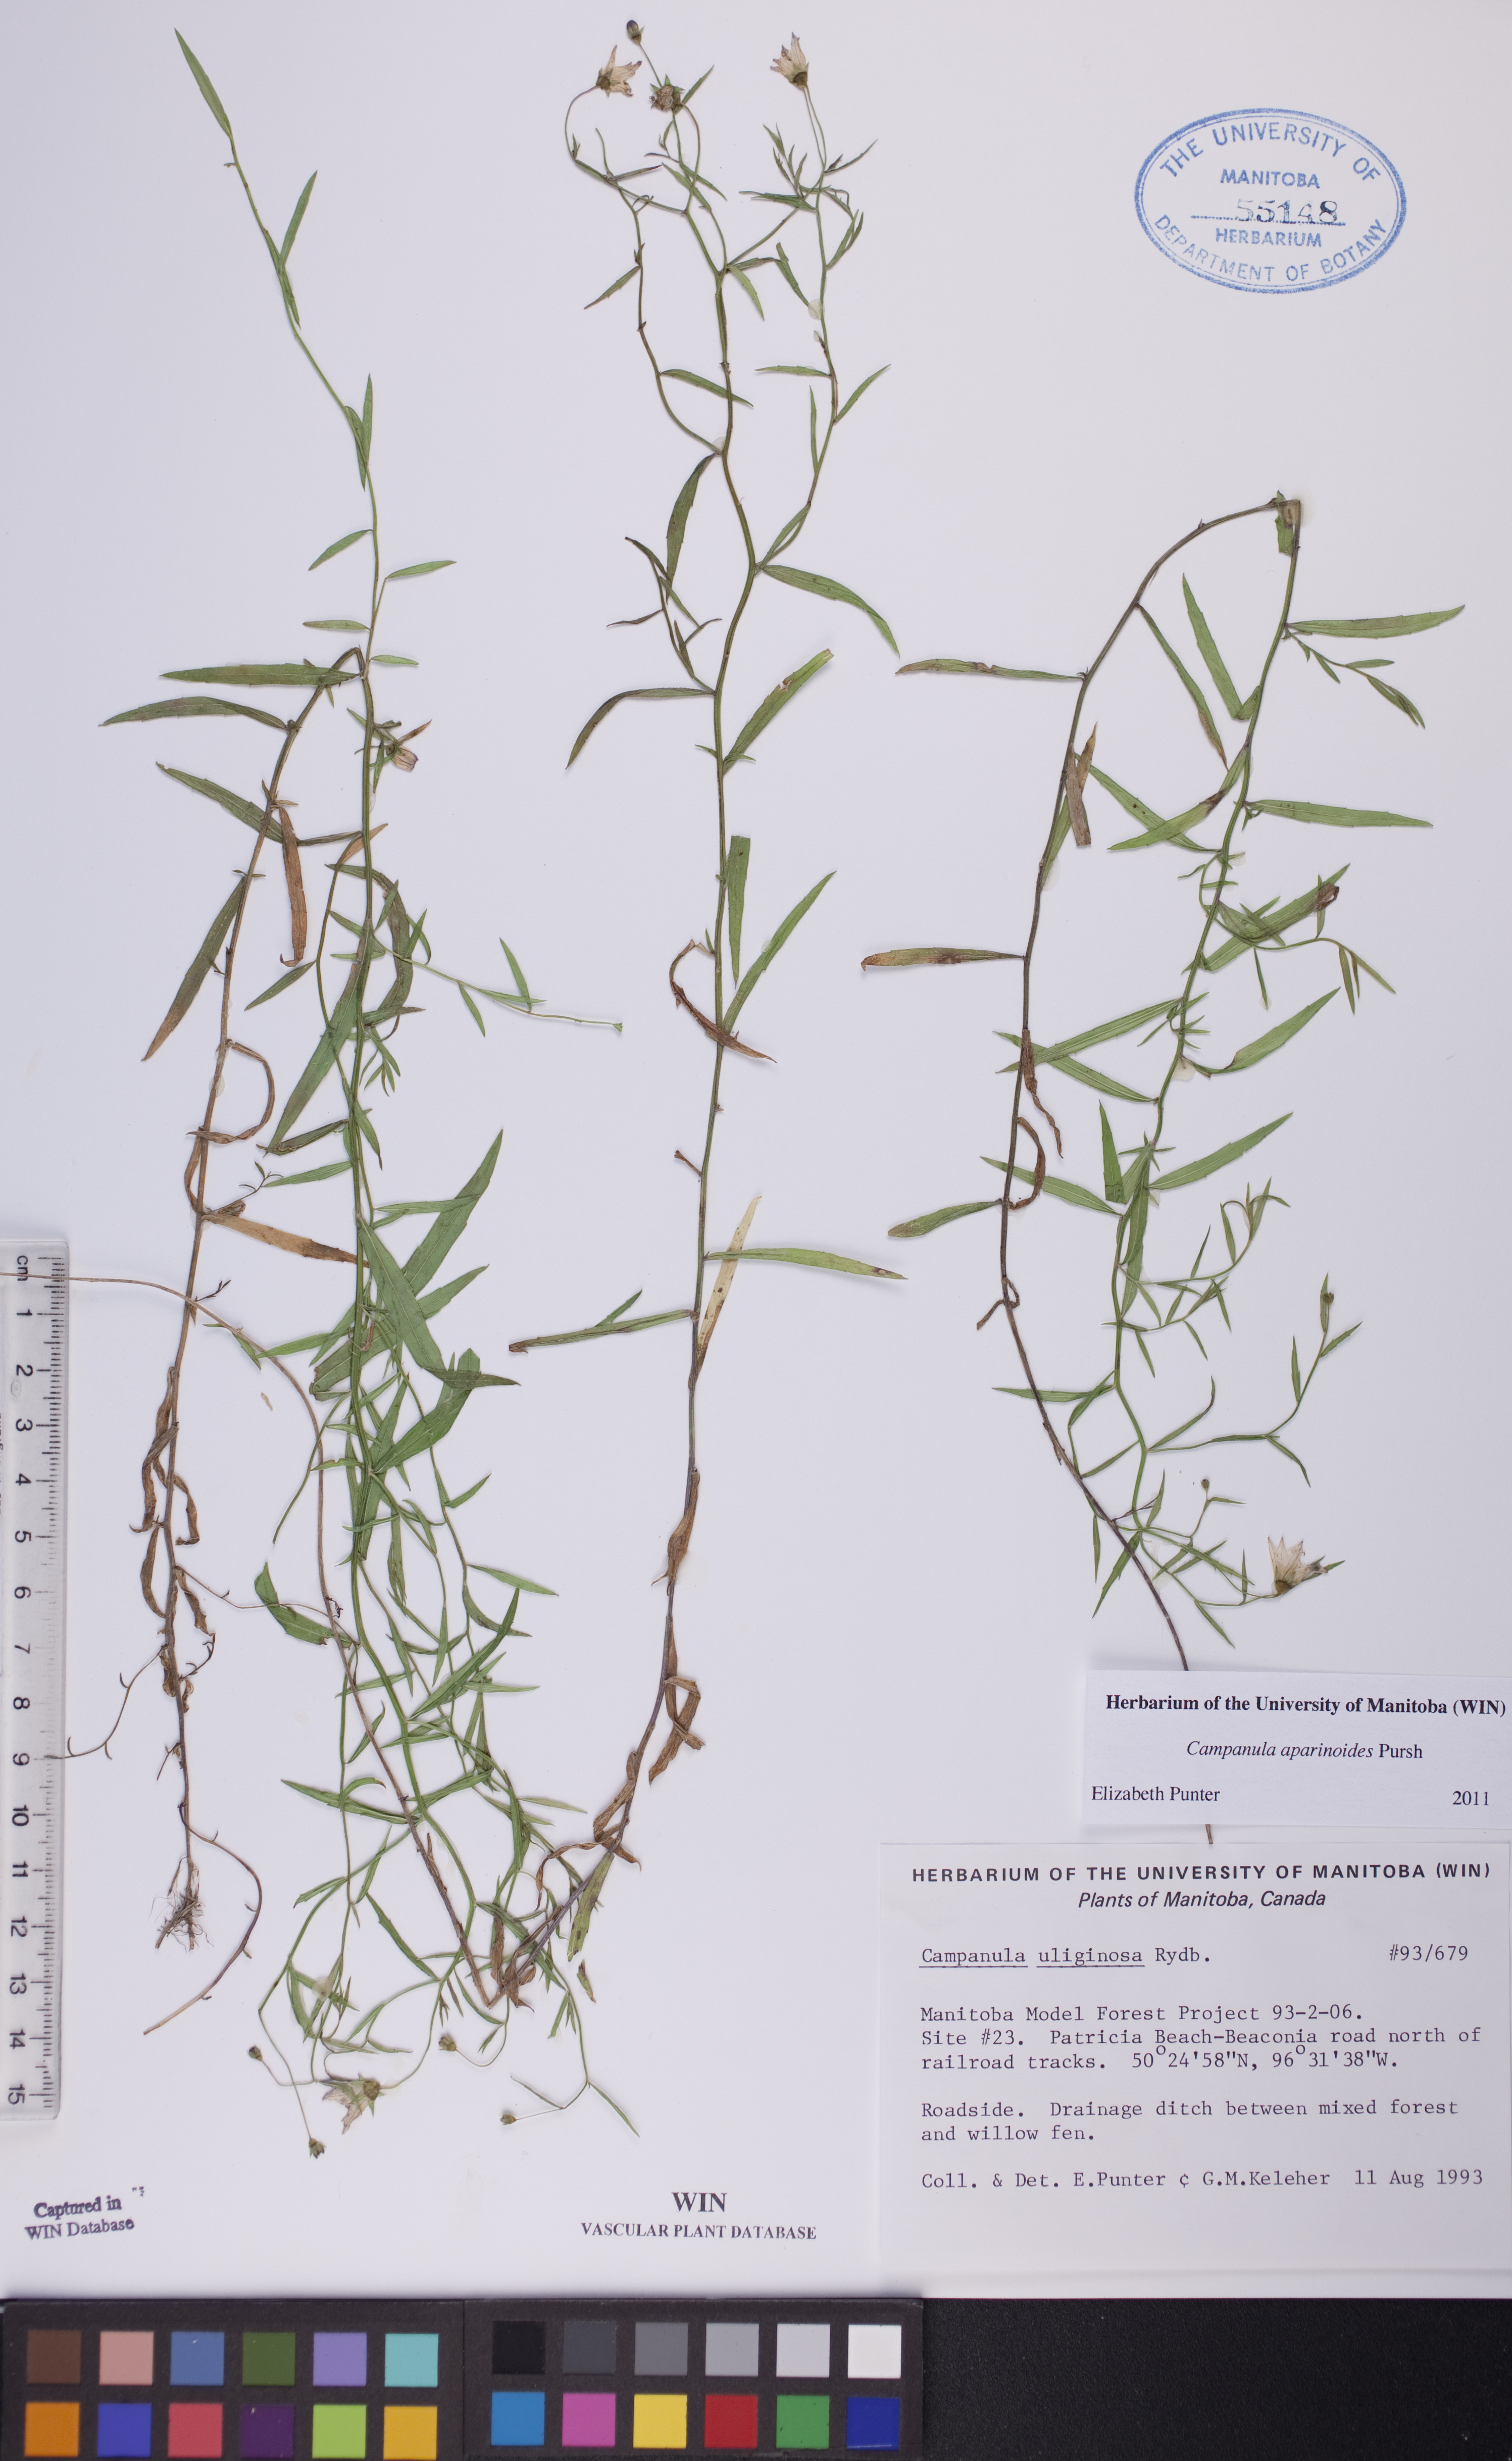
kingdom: Plantae
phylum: Tracheophyta
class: Magnoliopsida
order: Asterales
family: Campanulaceae
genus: Palustricodon
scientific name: Palustricodon aparinoides
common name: Bedstraw bellflower
